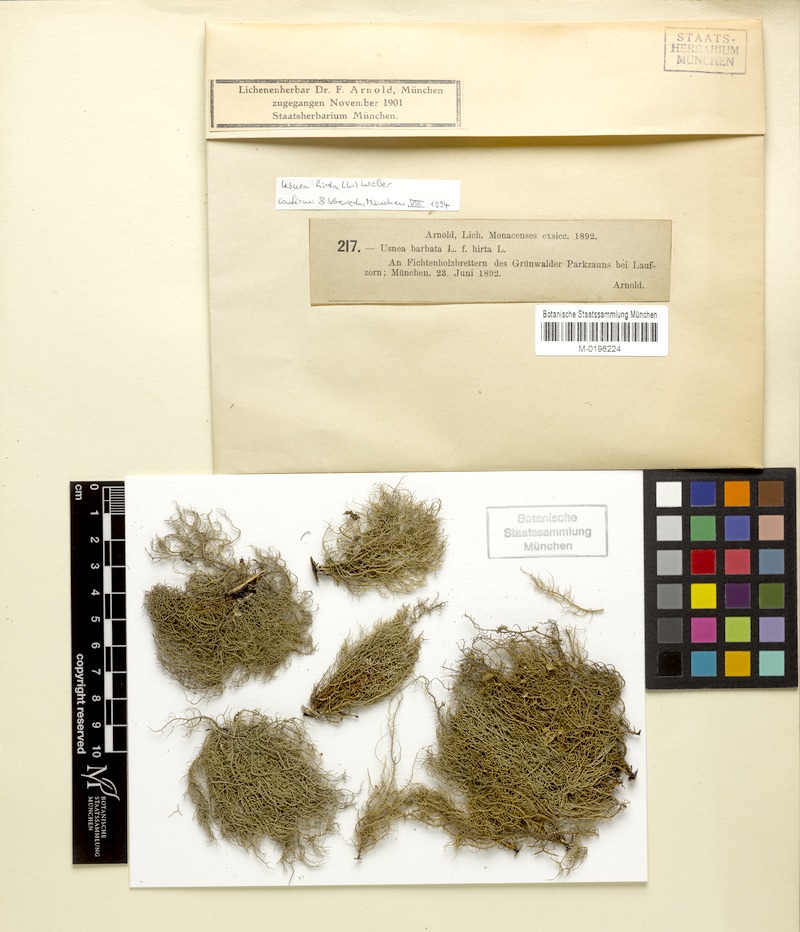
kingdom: Fungi
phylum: Ascomycota
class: Lecanoromycetes
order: Lecanorales
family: Parmeliaceae
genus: Usnea
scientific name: Usnea hirta
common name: Bristly beard lichen
